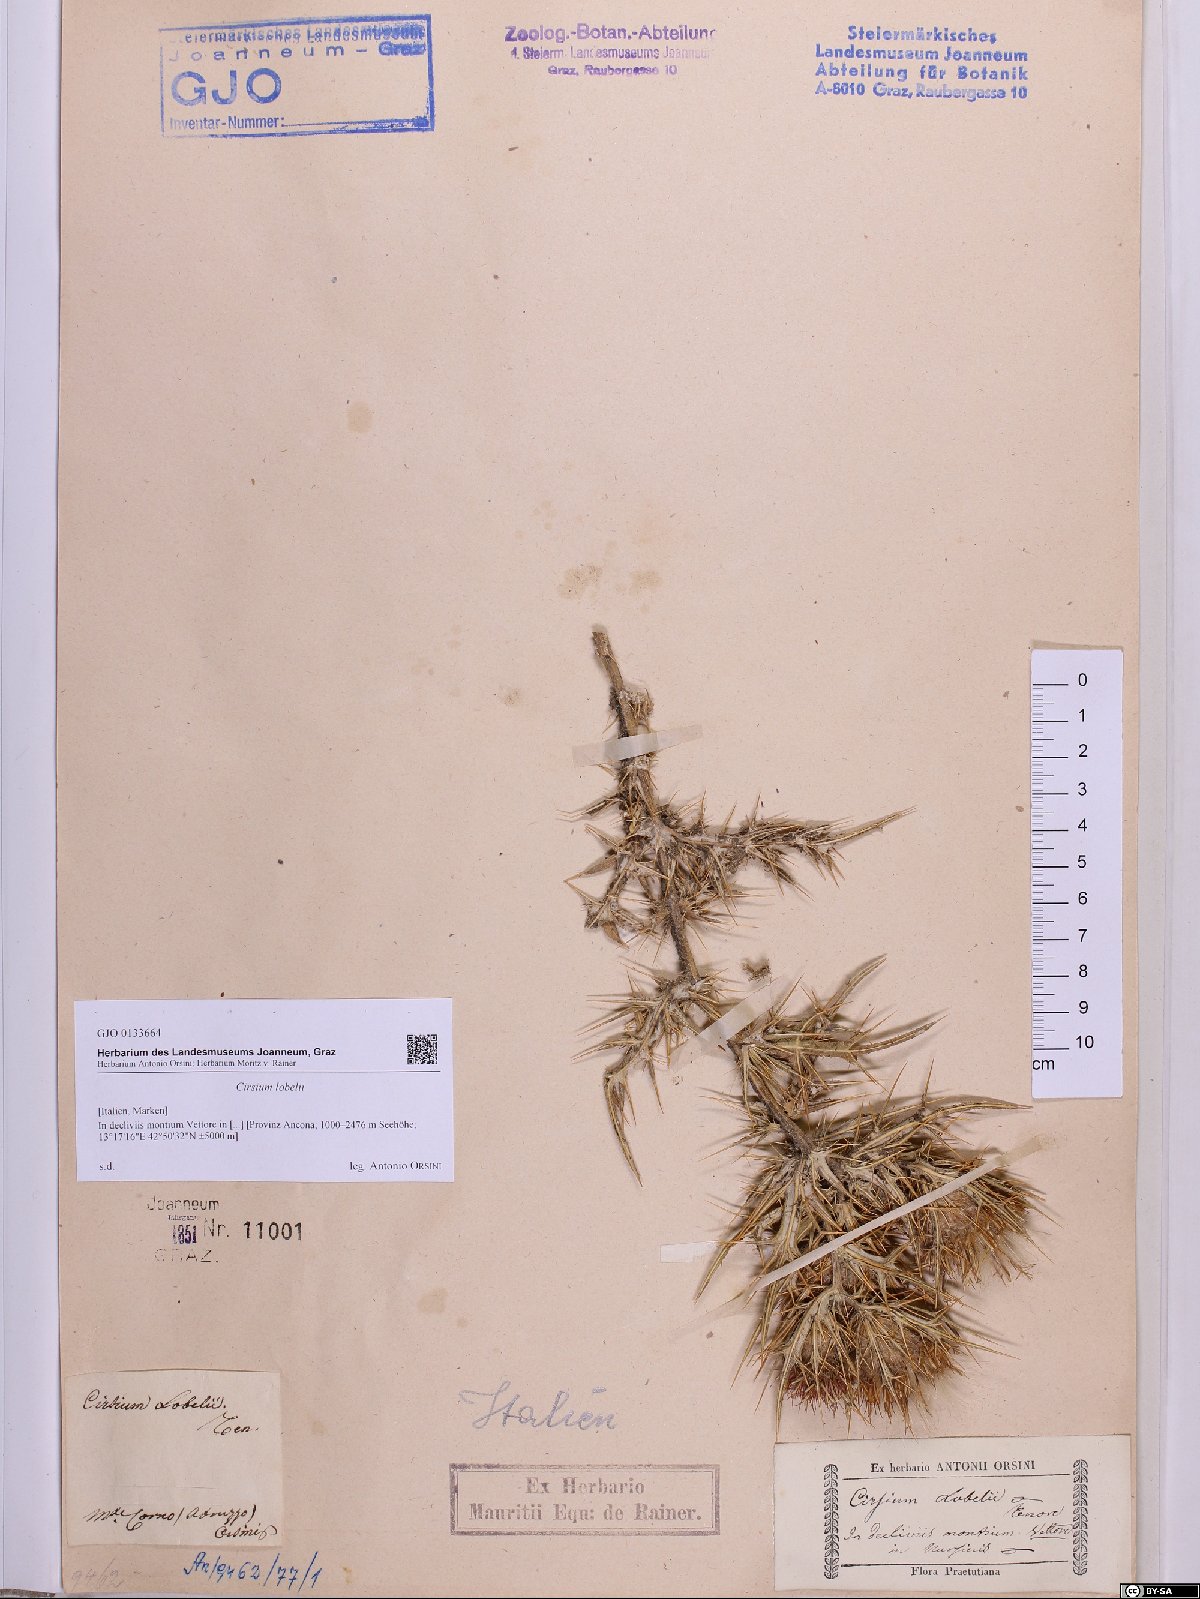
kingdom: Plantae
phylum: Tracheophyta
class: Magnoliopsida
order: Asterales
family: Asteraceae
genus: Lophiolepis
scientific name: Lophiolepis lobelii
